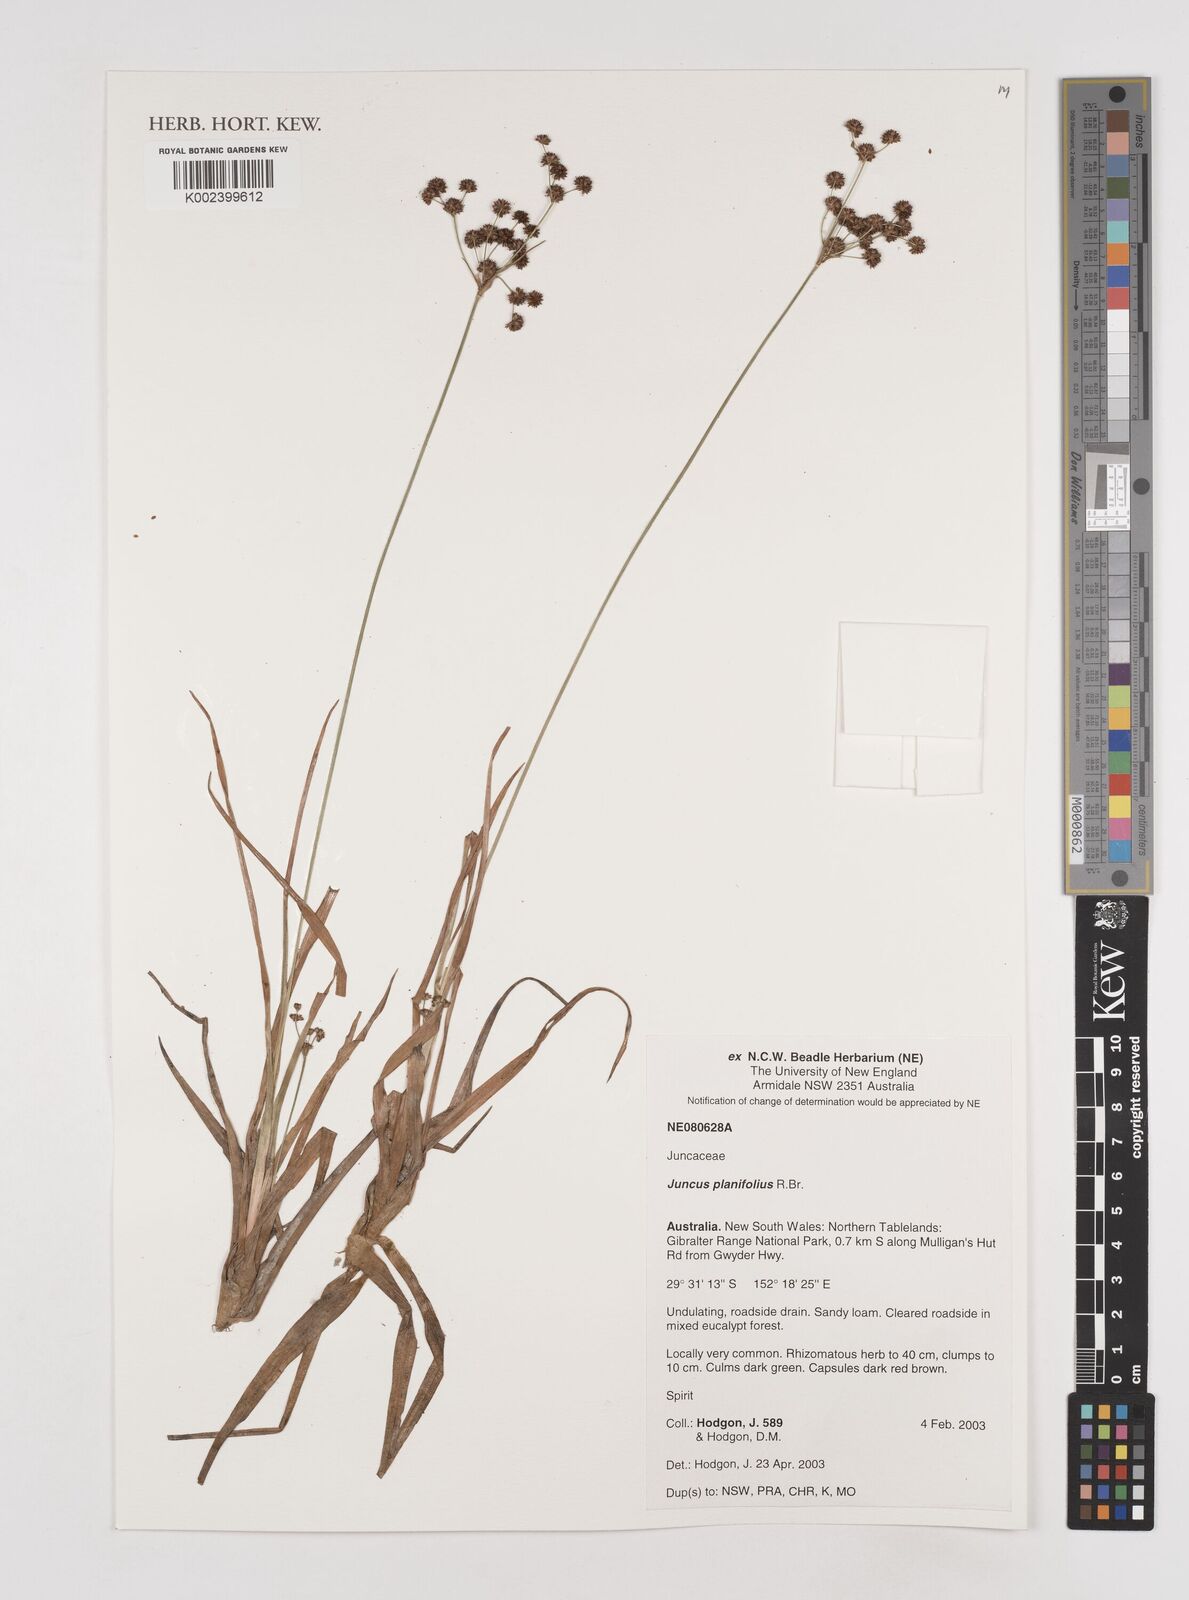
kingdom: Plantae
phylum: Tracheophyta
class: Liliopsida
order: Poales
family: Juncaceae
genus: Juncus
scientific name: Juncus planifolius
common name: Broadleaf rush
